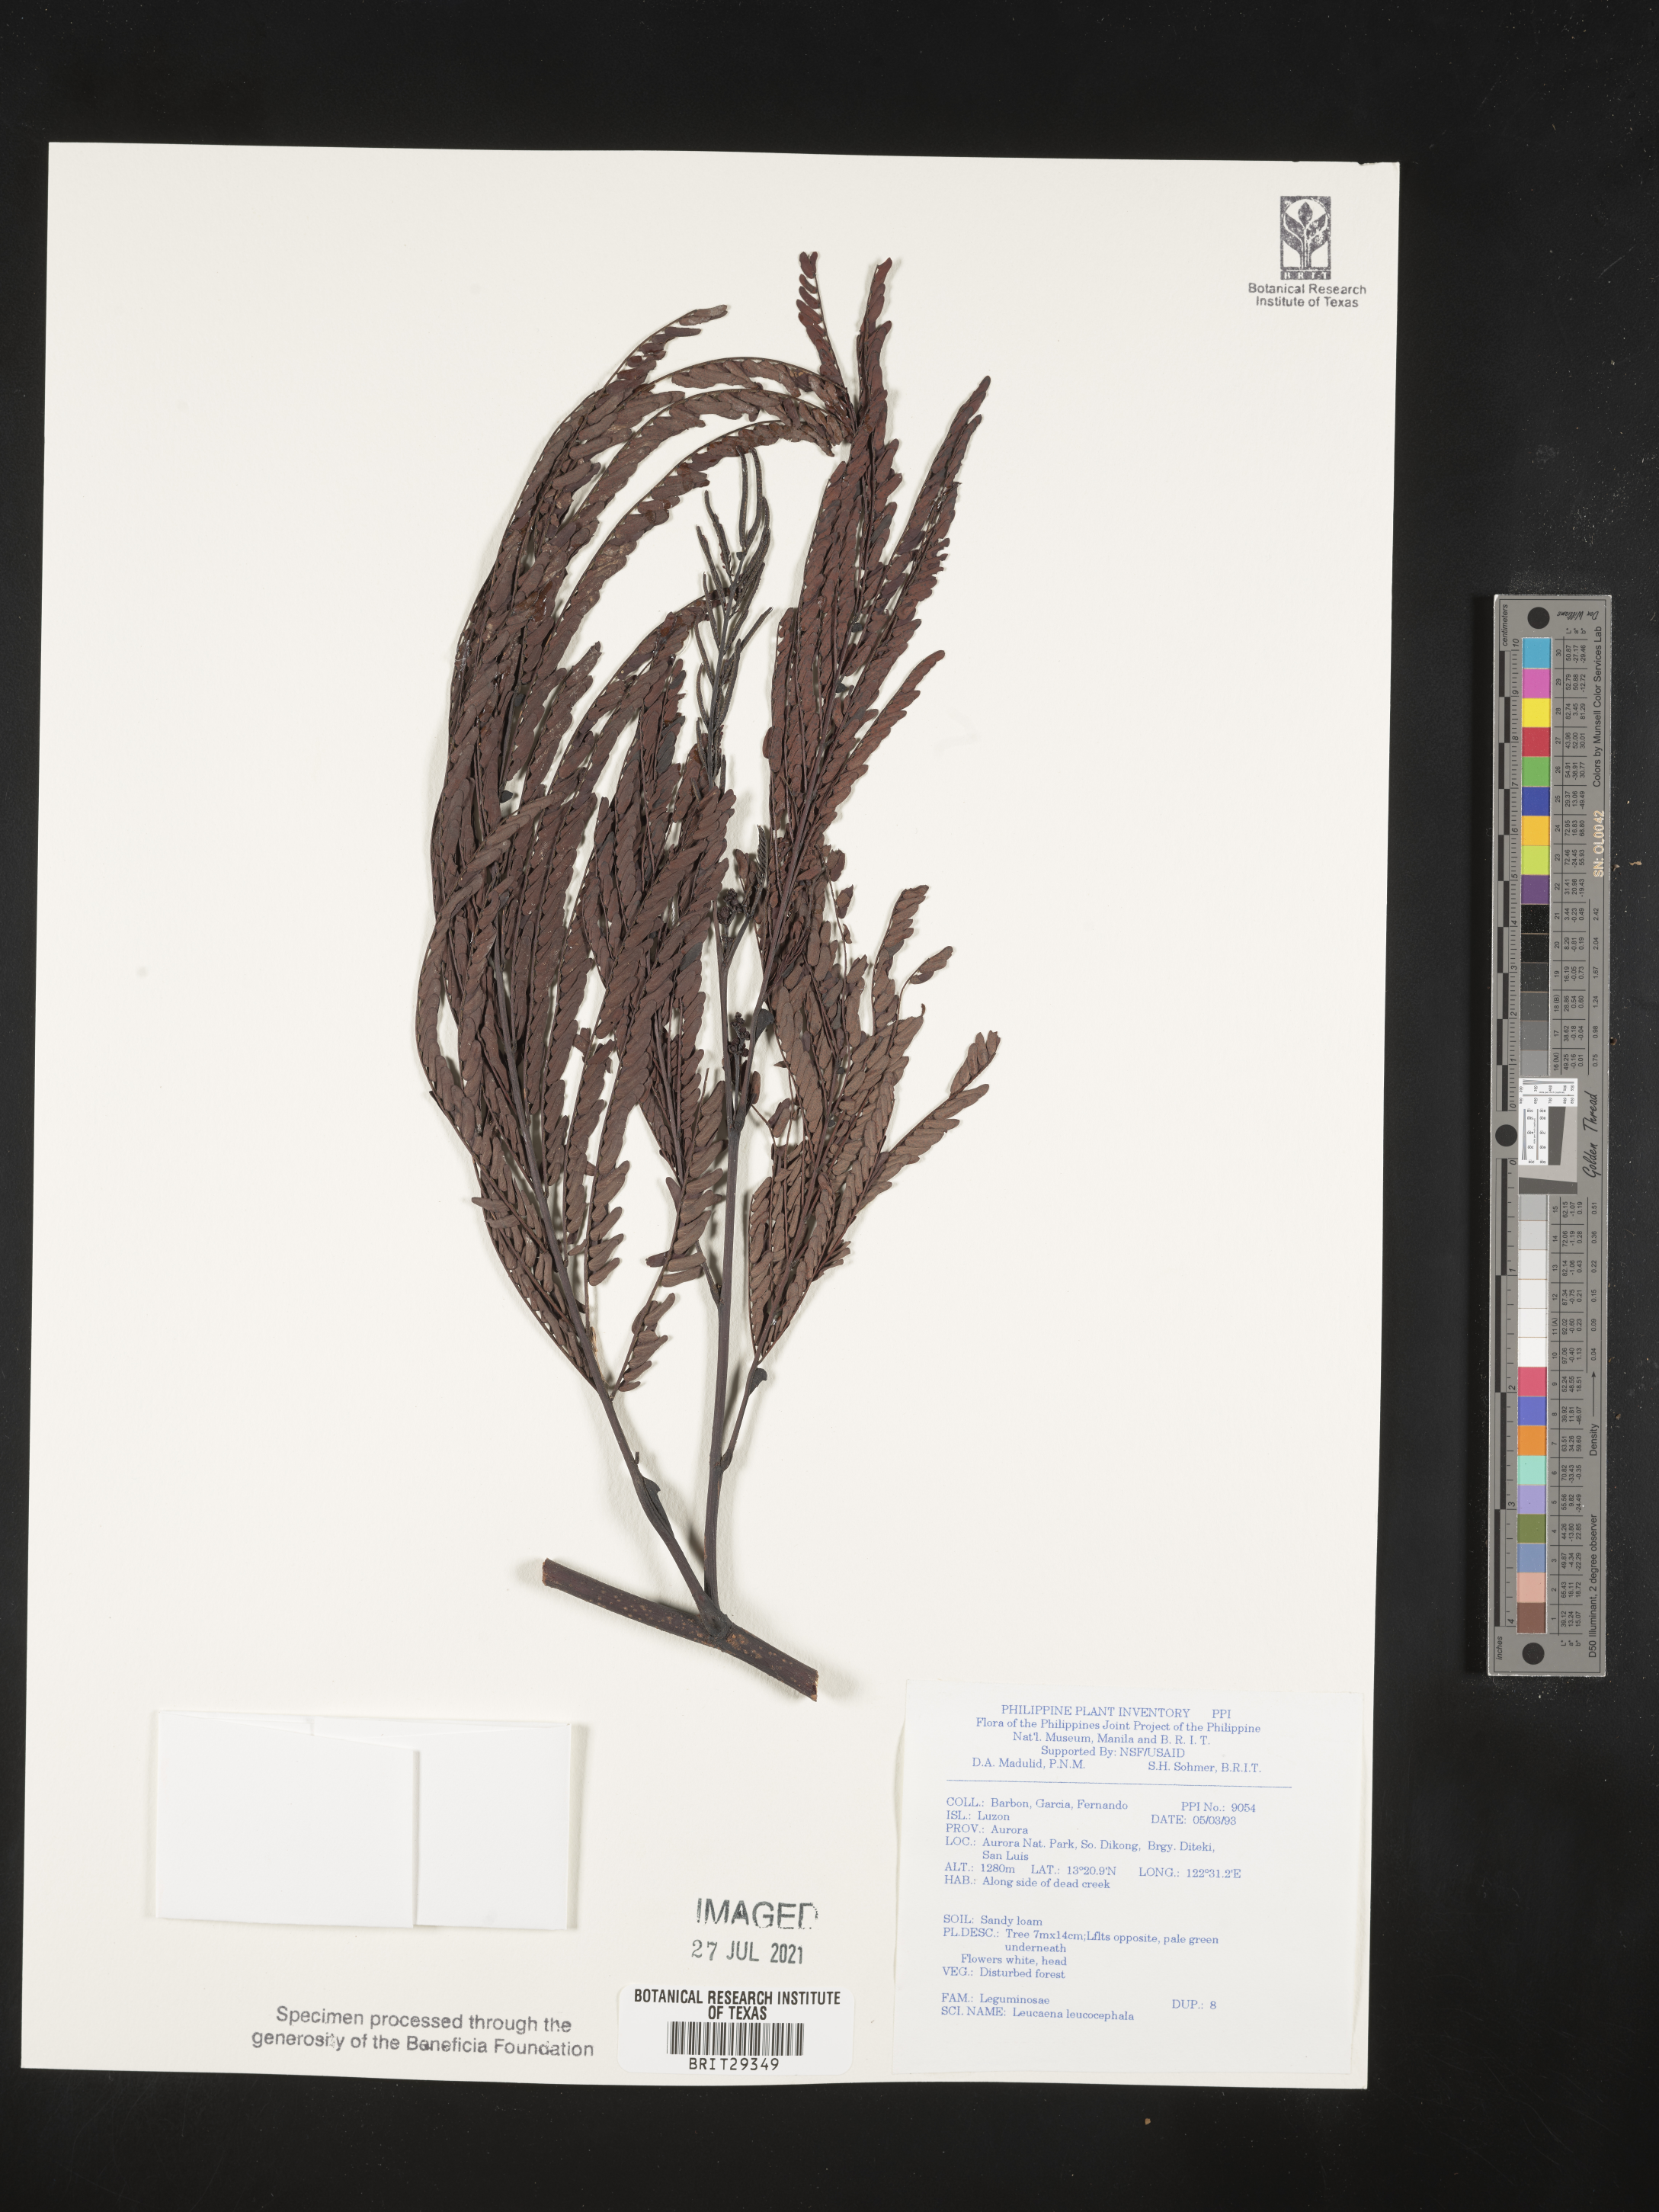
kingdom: Plantae
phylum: Tracheophyta
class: Magnoliopsida
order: Fabales
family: Fabaceae
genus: Leucaena
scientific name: Leucaena leucocephala
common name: White leadtree
